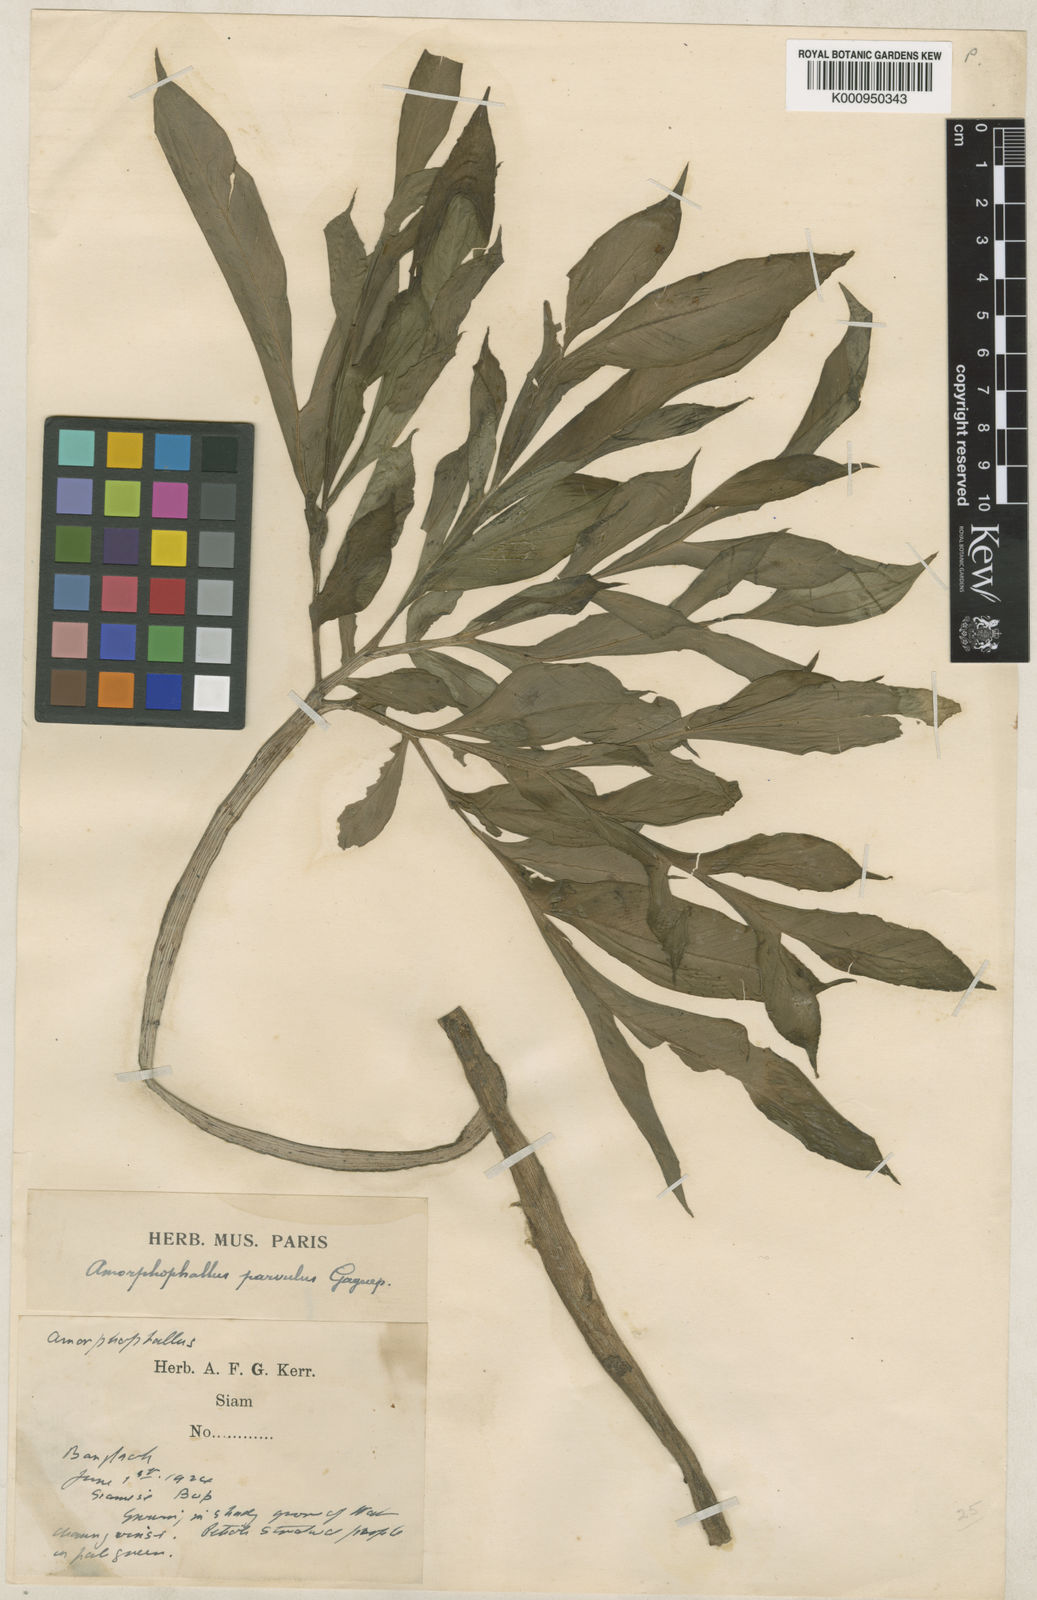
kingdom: Plantae
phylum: Tracheophyta
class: Liliopsida
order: Alismatales
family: Araceae
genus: Amorphophallus
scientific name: Amorphophallus harmandii
